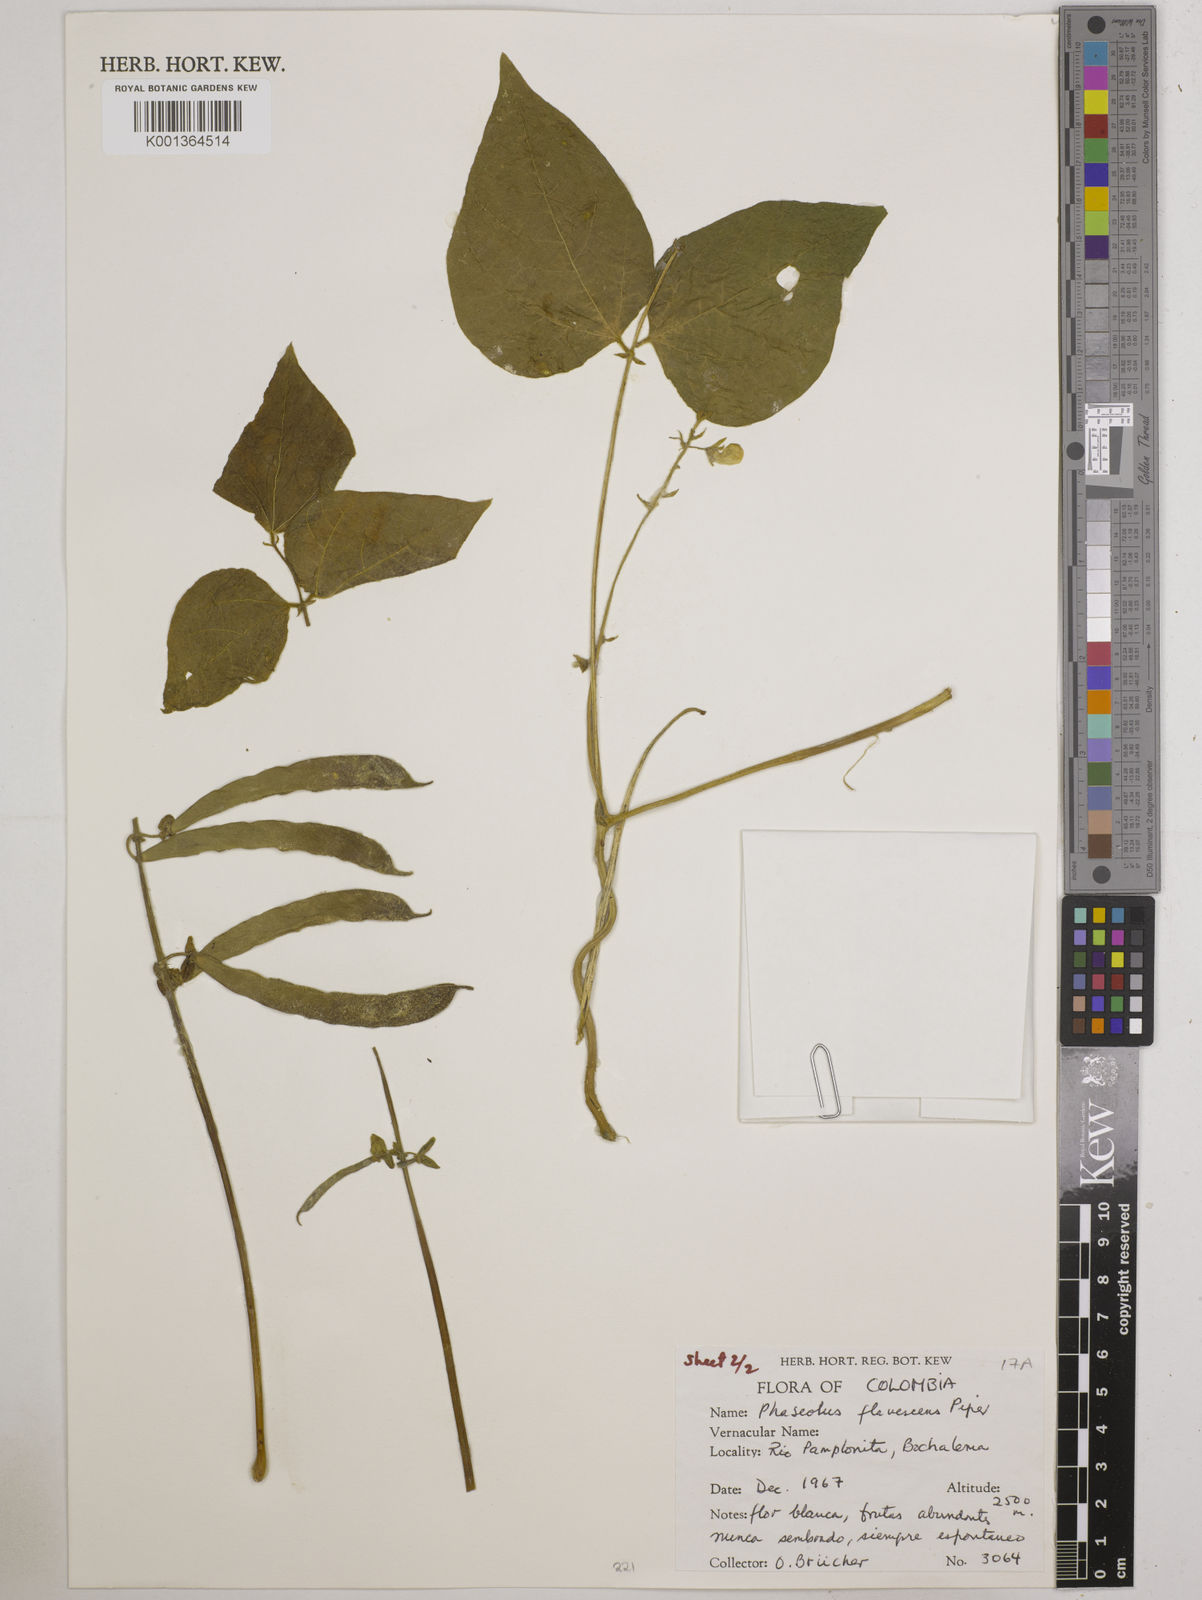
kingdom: Plantae
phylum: Tracheophyta
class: Magnoliopsida
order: Fabales
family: Fabaceae
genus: Phaseolus
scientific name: Phaseolus
